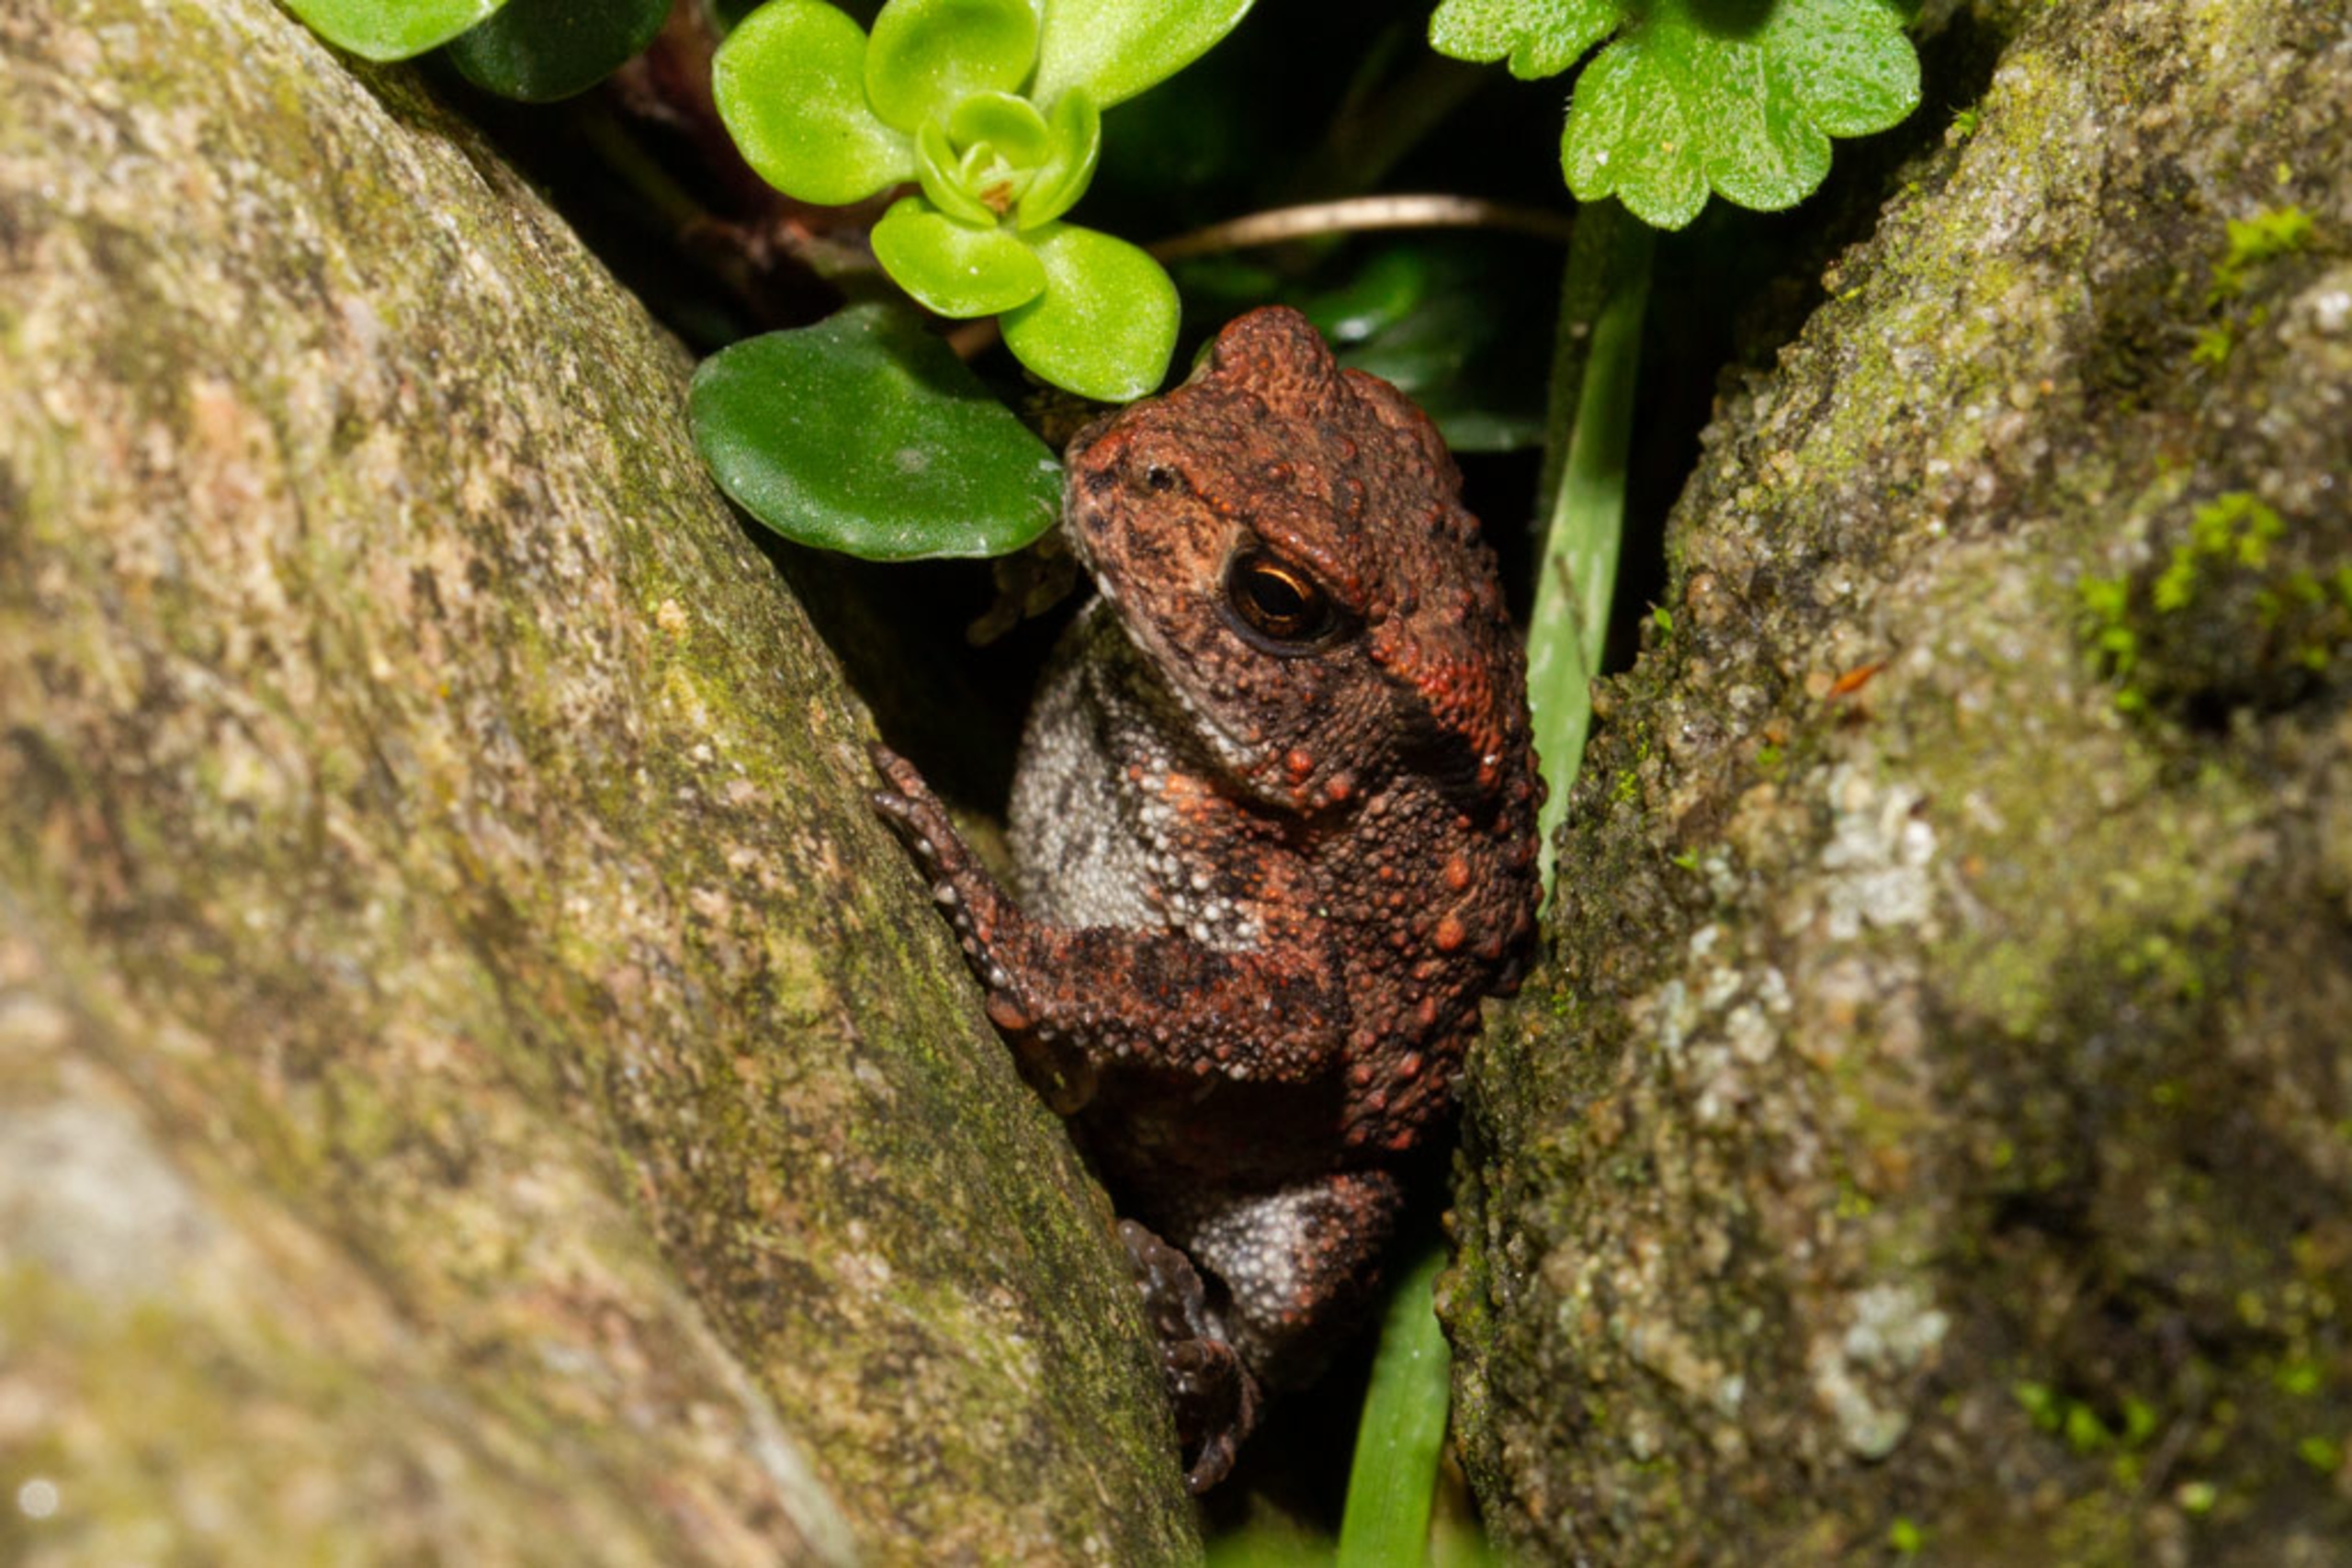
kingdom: Animalia
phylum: Chordata
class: Amphibia
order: Anura
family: Bufonidae
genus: Bufo
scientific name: Bufo bufo
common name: Skrubtudse
